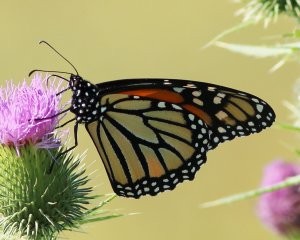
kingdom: Animalia
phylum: Arthropoda
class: Insecta
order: Lepidoptera
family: Nymphalidae
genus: Danaus
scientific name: Danaus plexippus
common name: Monarch
